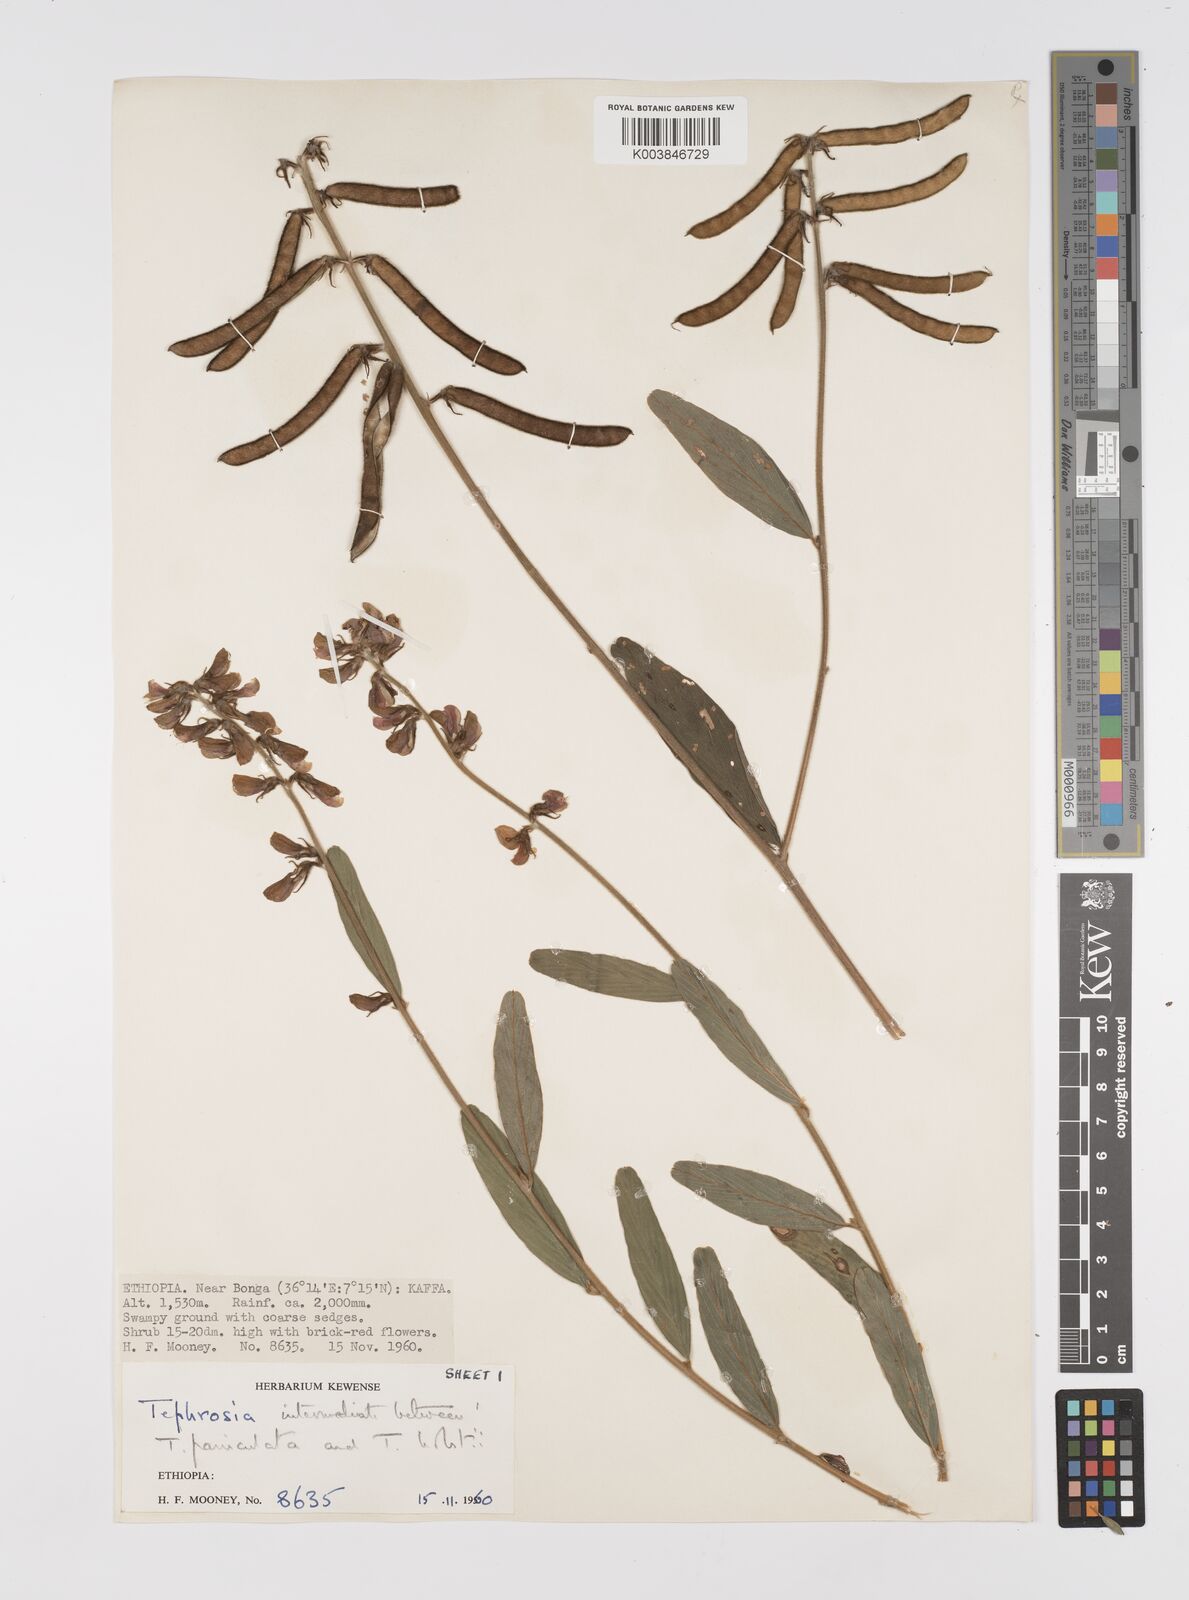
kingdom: Plantae
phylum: Tracheophyta
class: Magnoliopsida
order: Fabales
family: Fabaceae
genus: Tephrosia
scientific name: Tephrosia holstii
